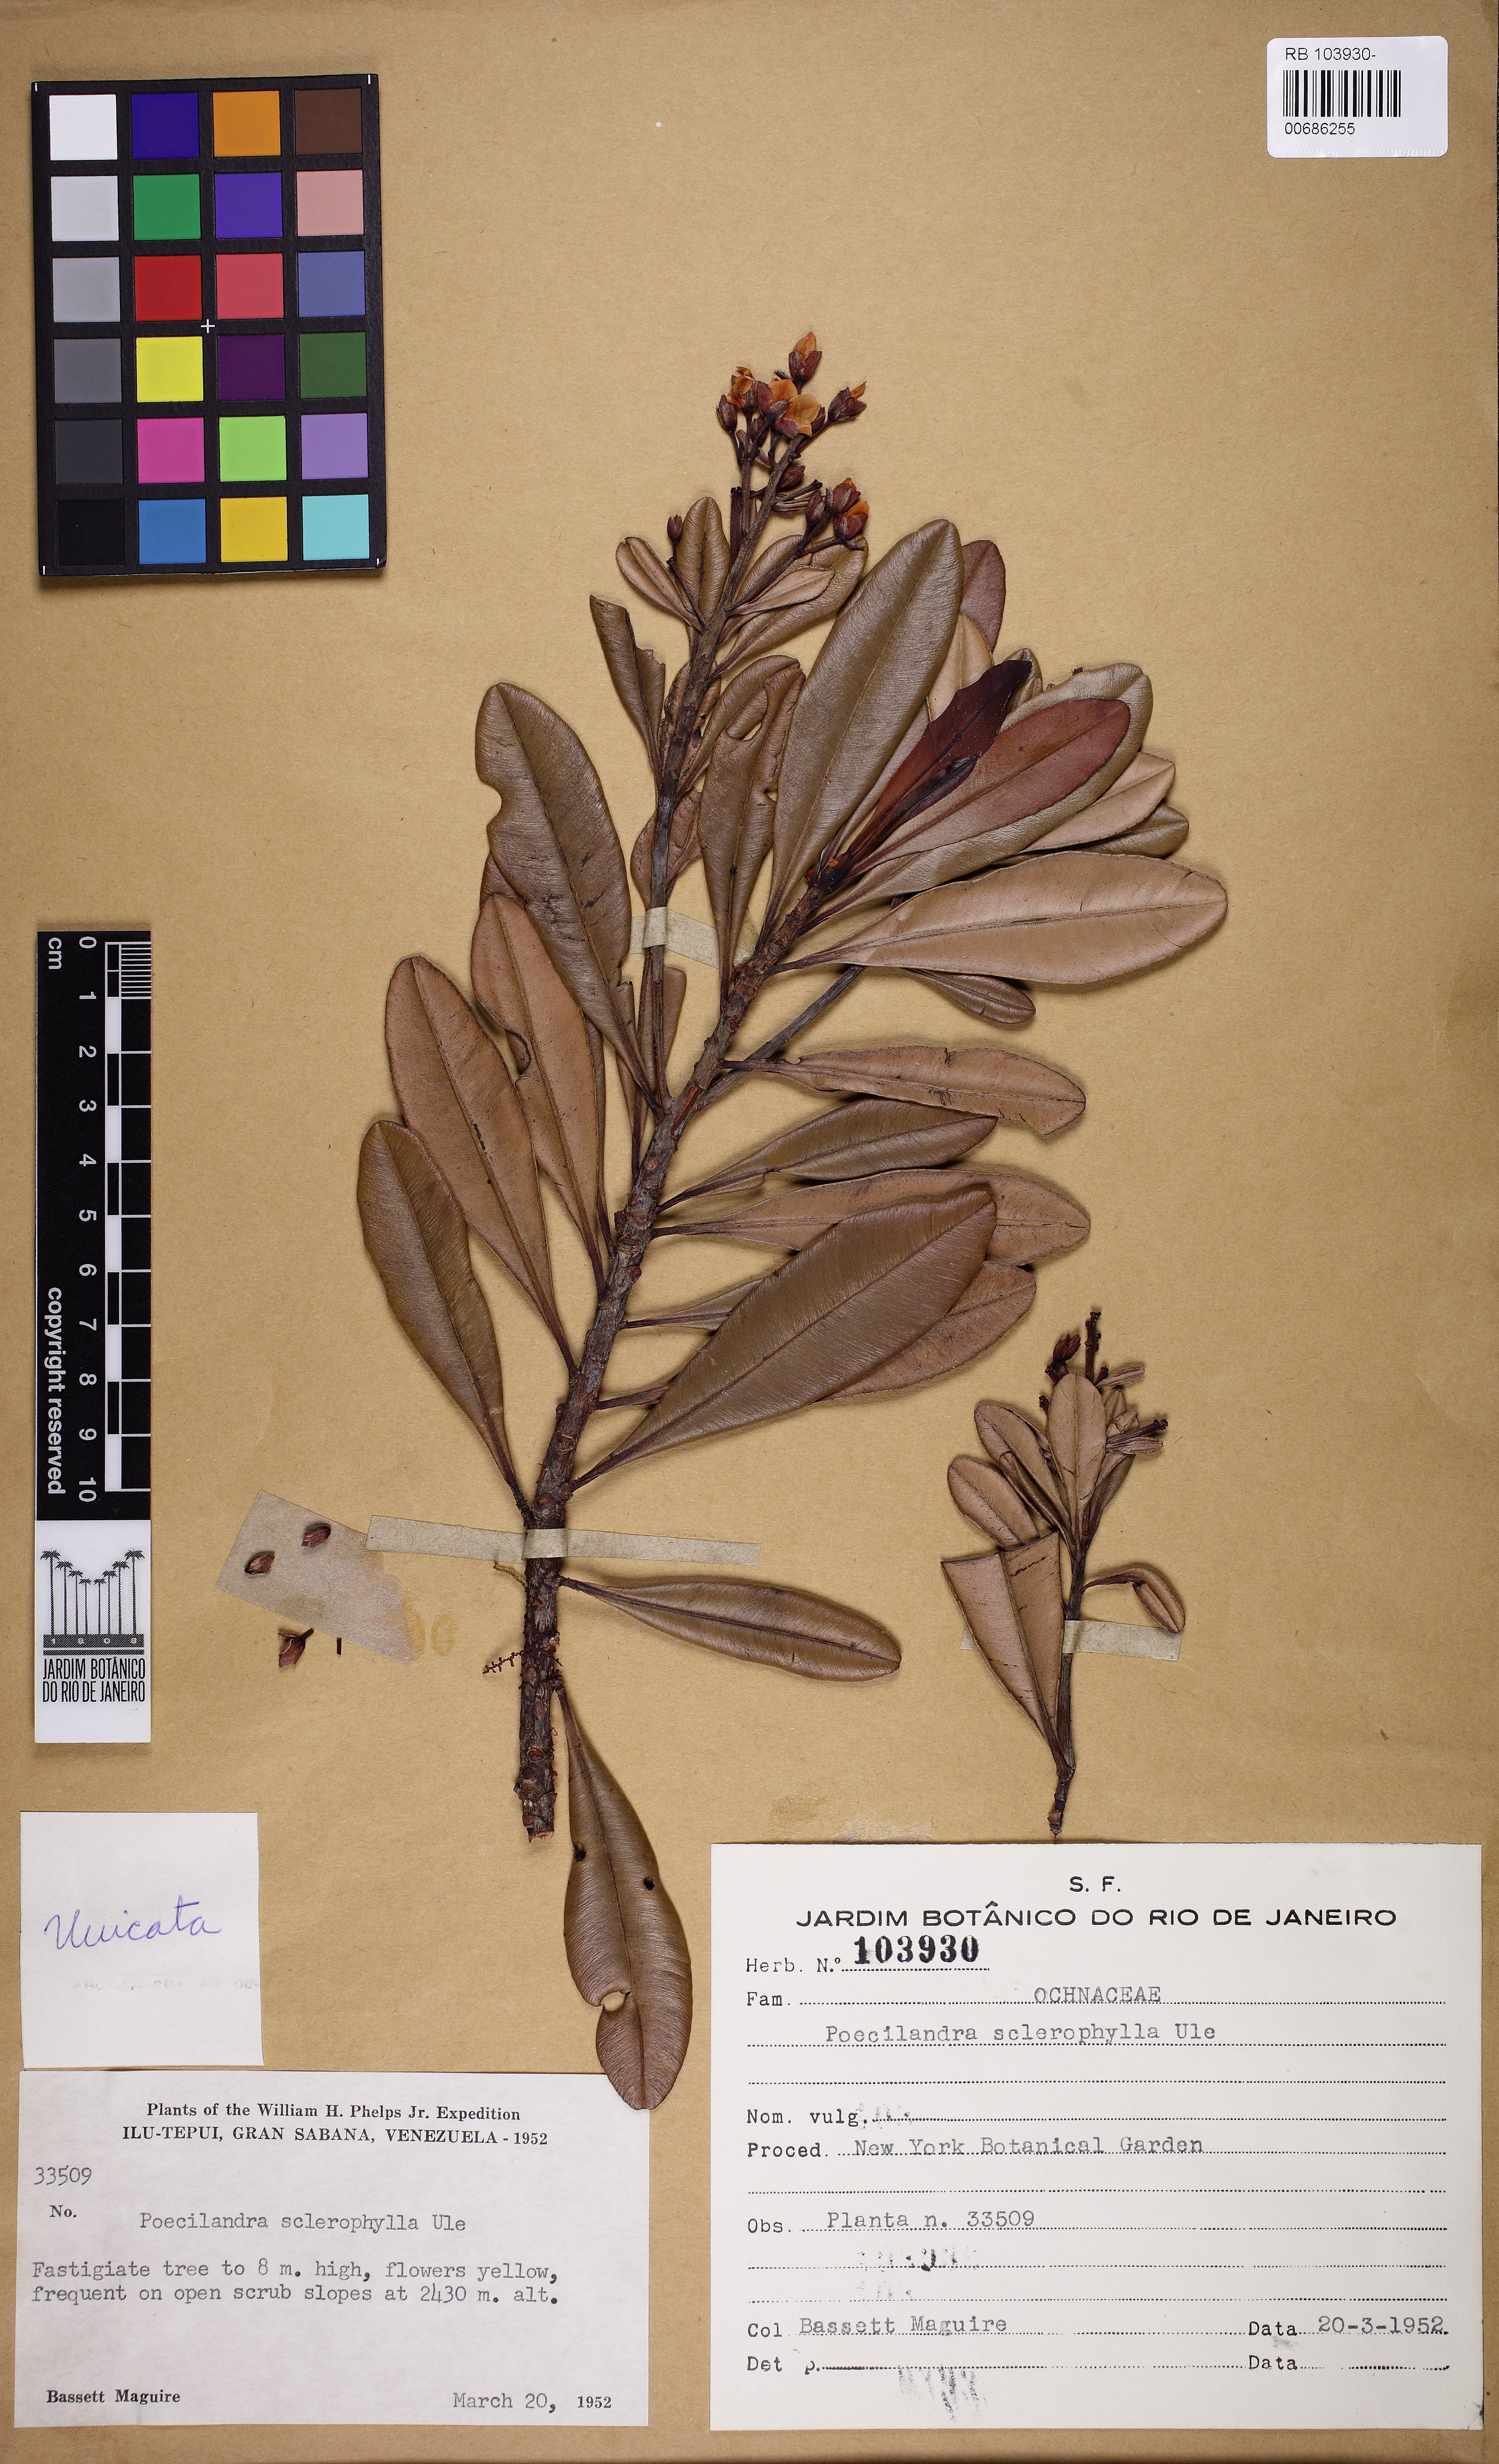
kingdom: Plantae
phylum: Tracheophyta
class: Magnoliopsida
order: Malpighiales
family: Ochnaceae
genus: Poecilandra
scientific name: Poecilandra retusa
